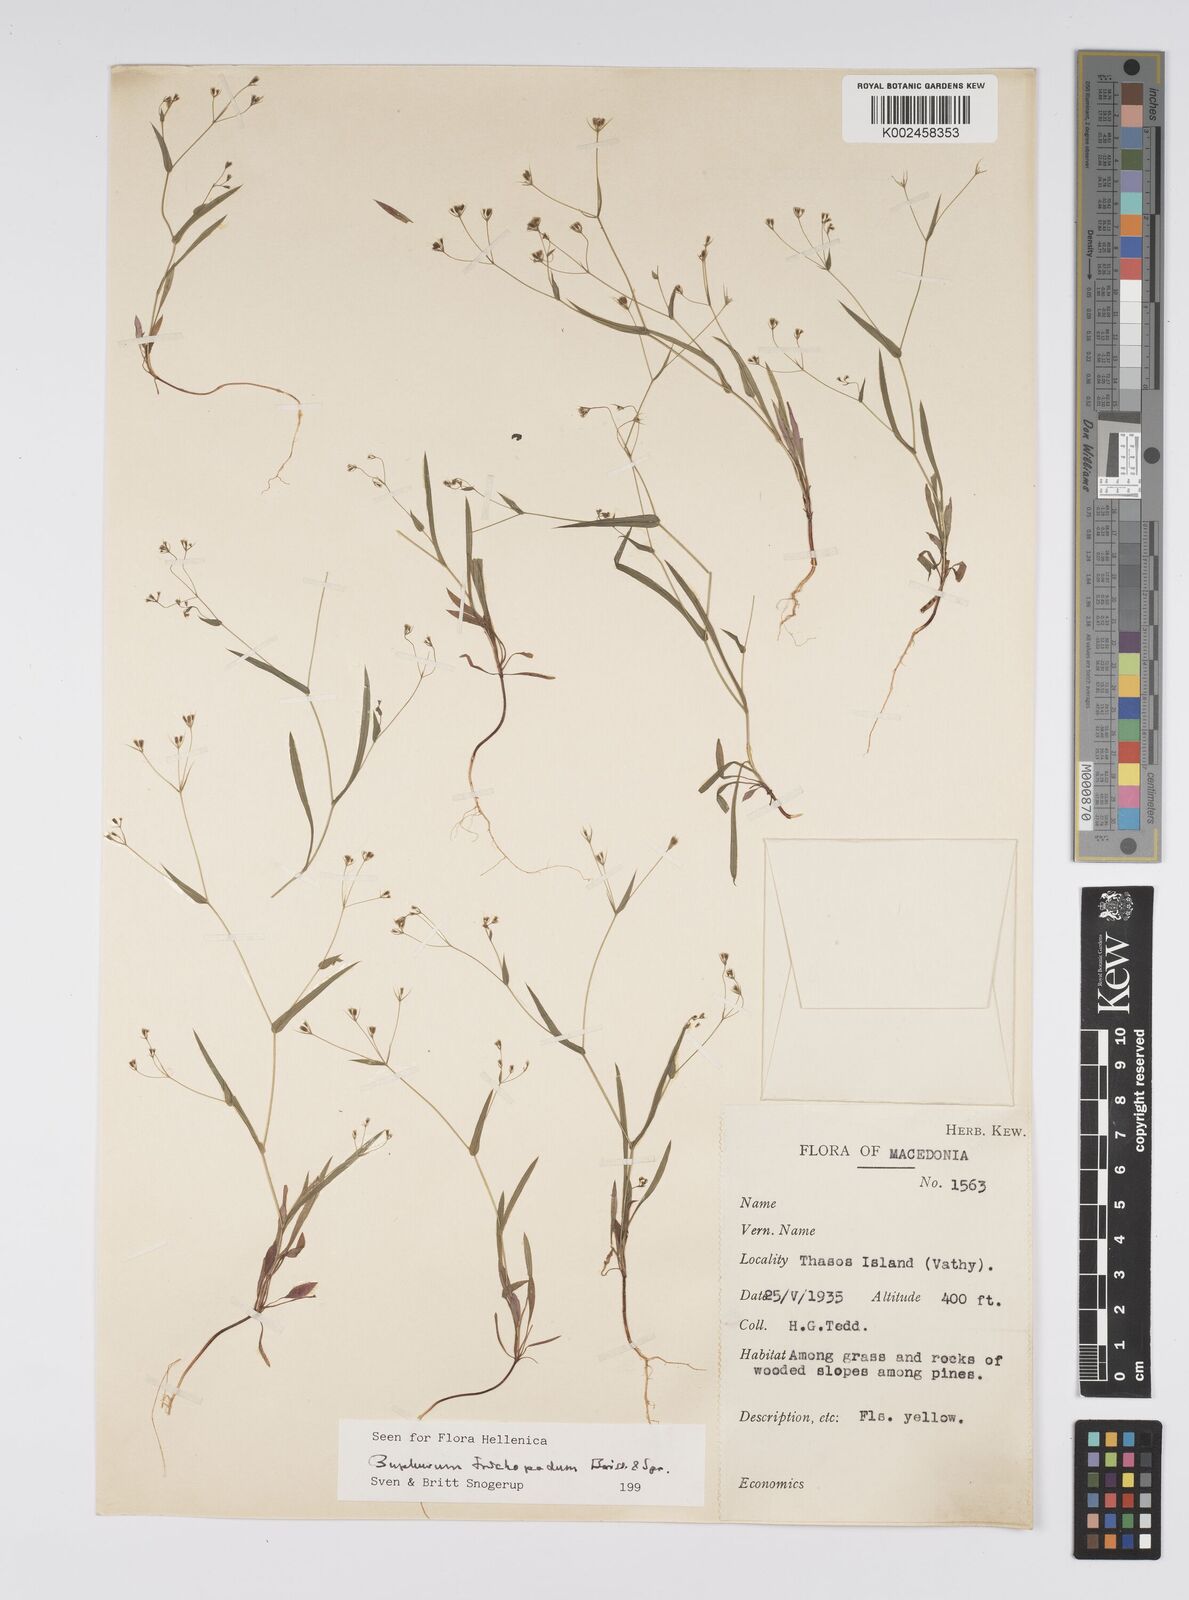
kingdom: Plantae
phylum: Tracheophyta
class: Magnoliopsida
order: Apiales
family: Apiaceae
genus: Bupleurum
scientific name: Bupleurum trichopodum
